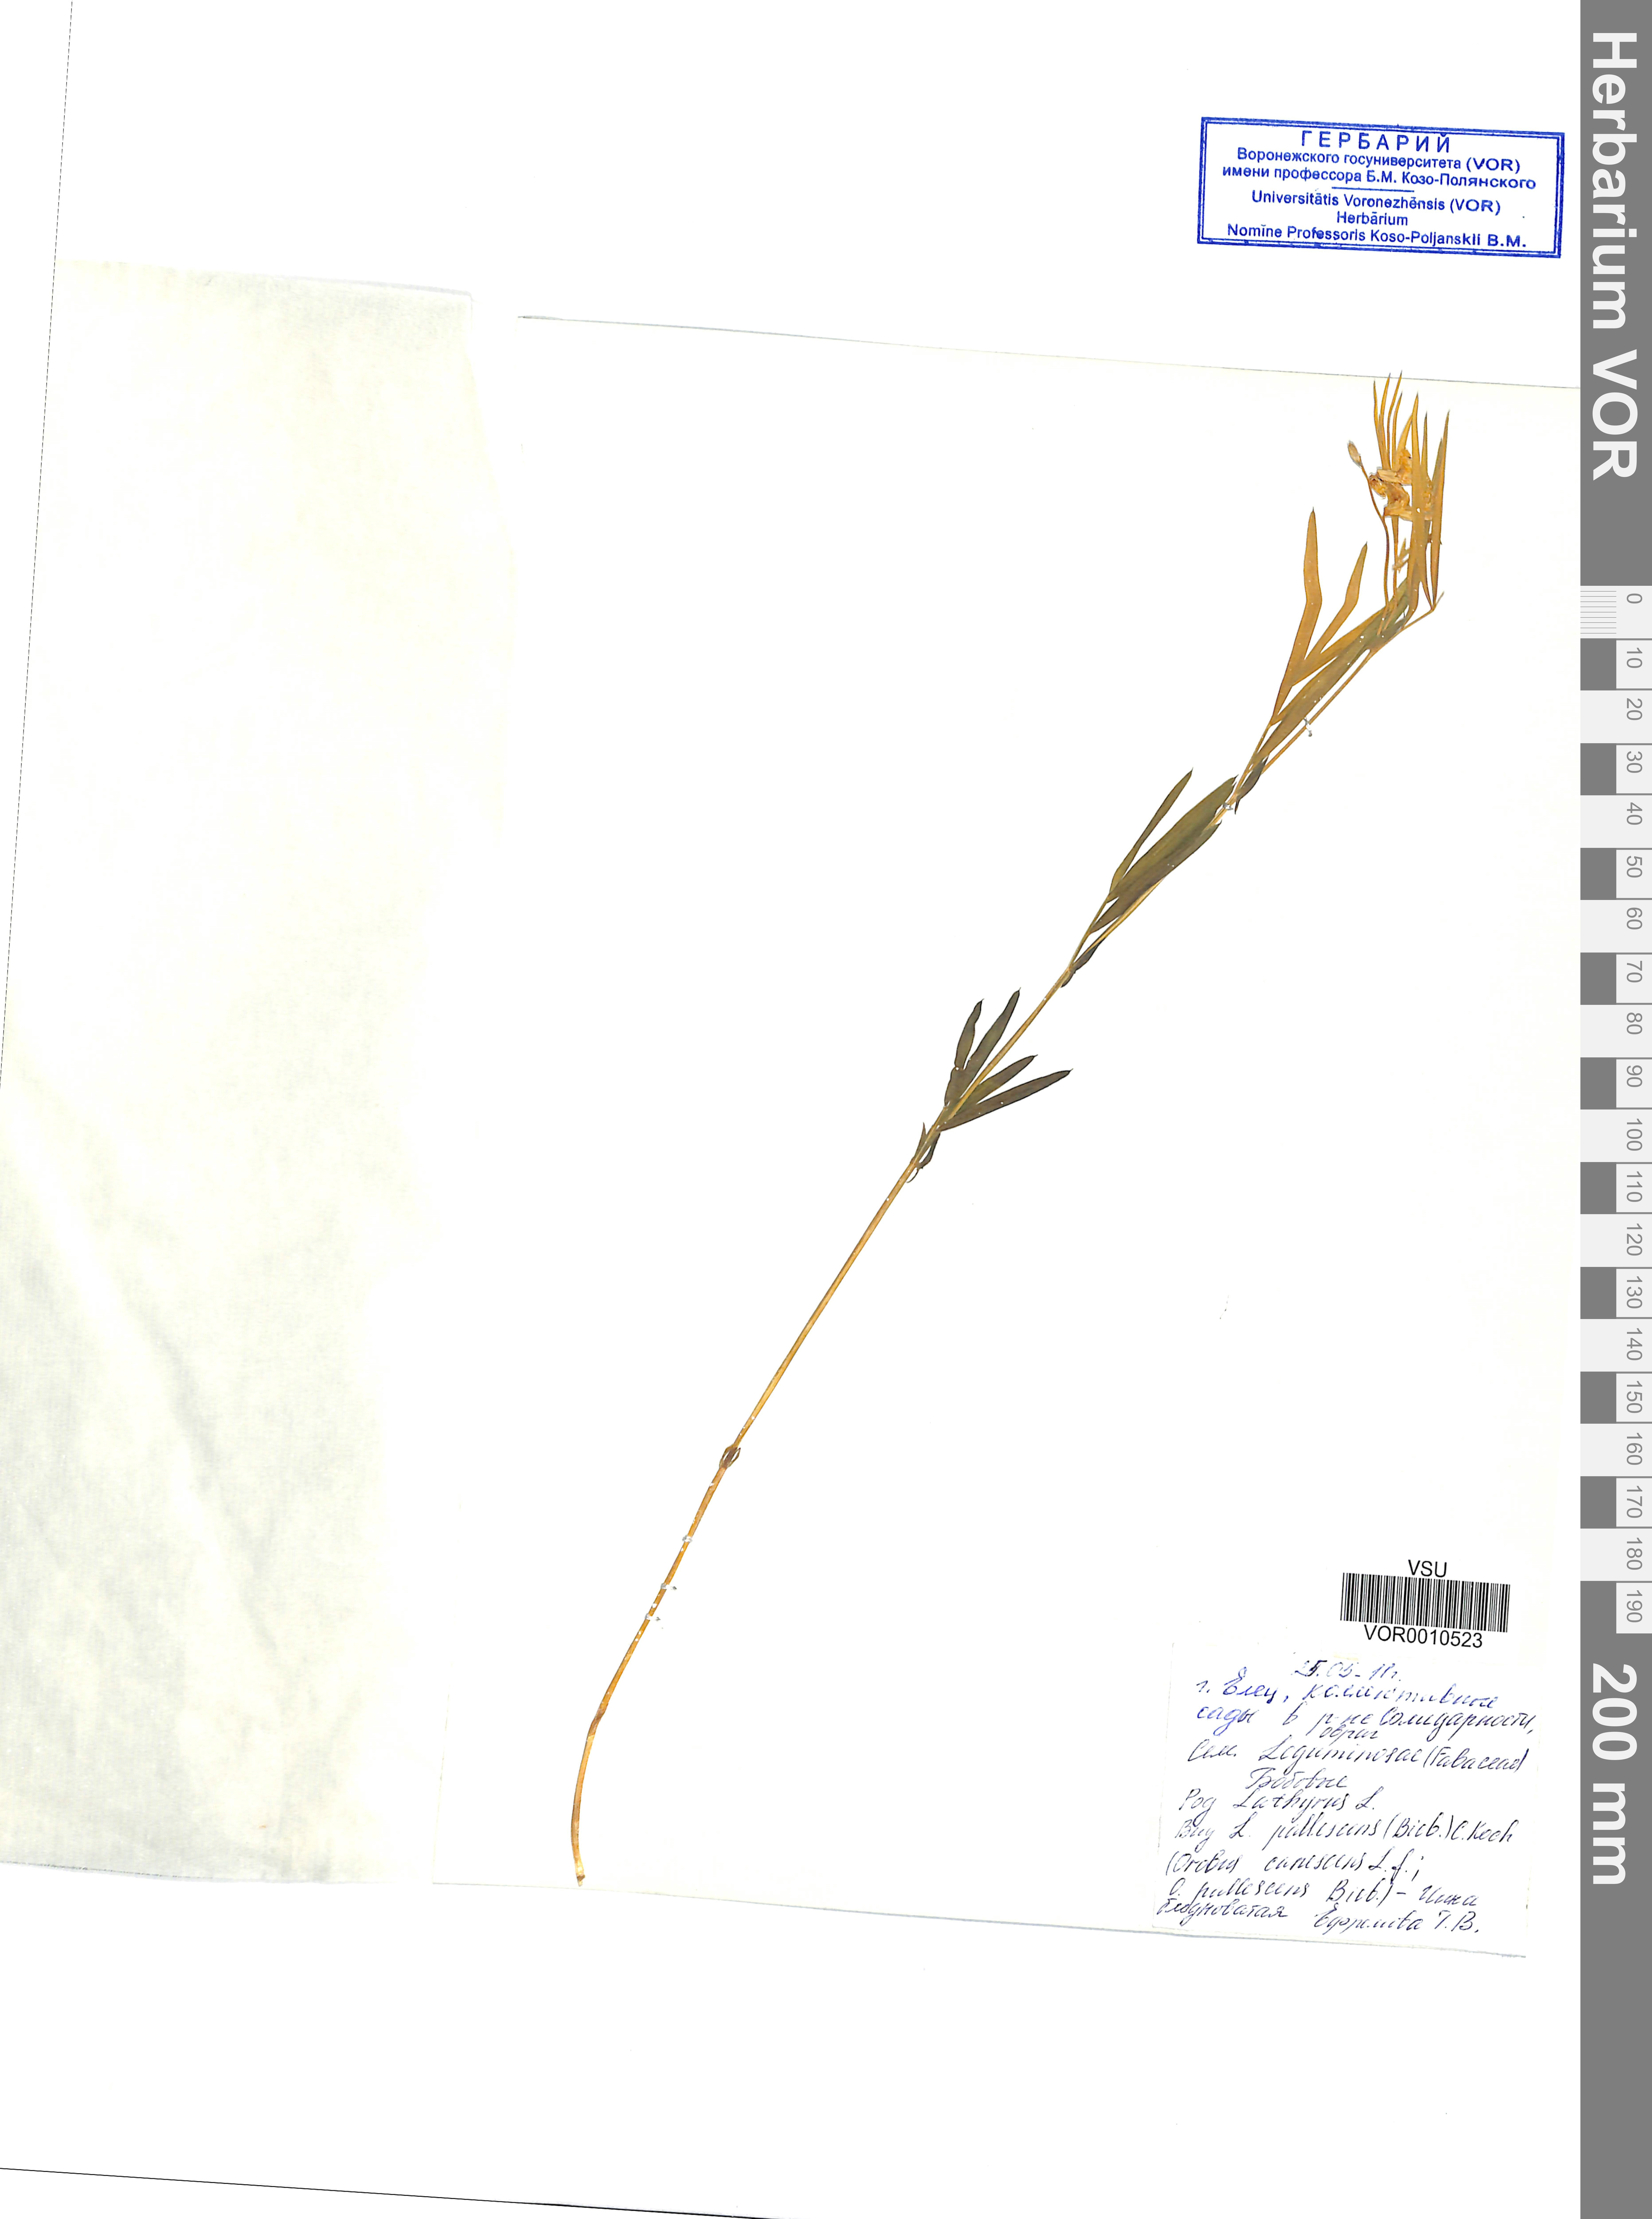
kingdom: Plantae
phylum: Tracheophyta
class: Magnoliopsida
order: Fabales
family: Fabaceae
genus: Lathyrus
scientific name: Lathyrus pallescens
